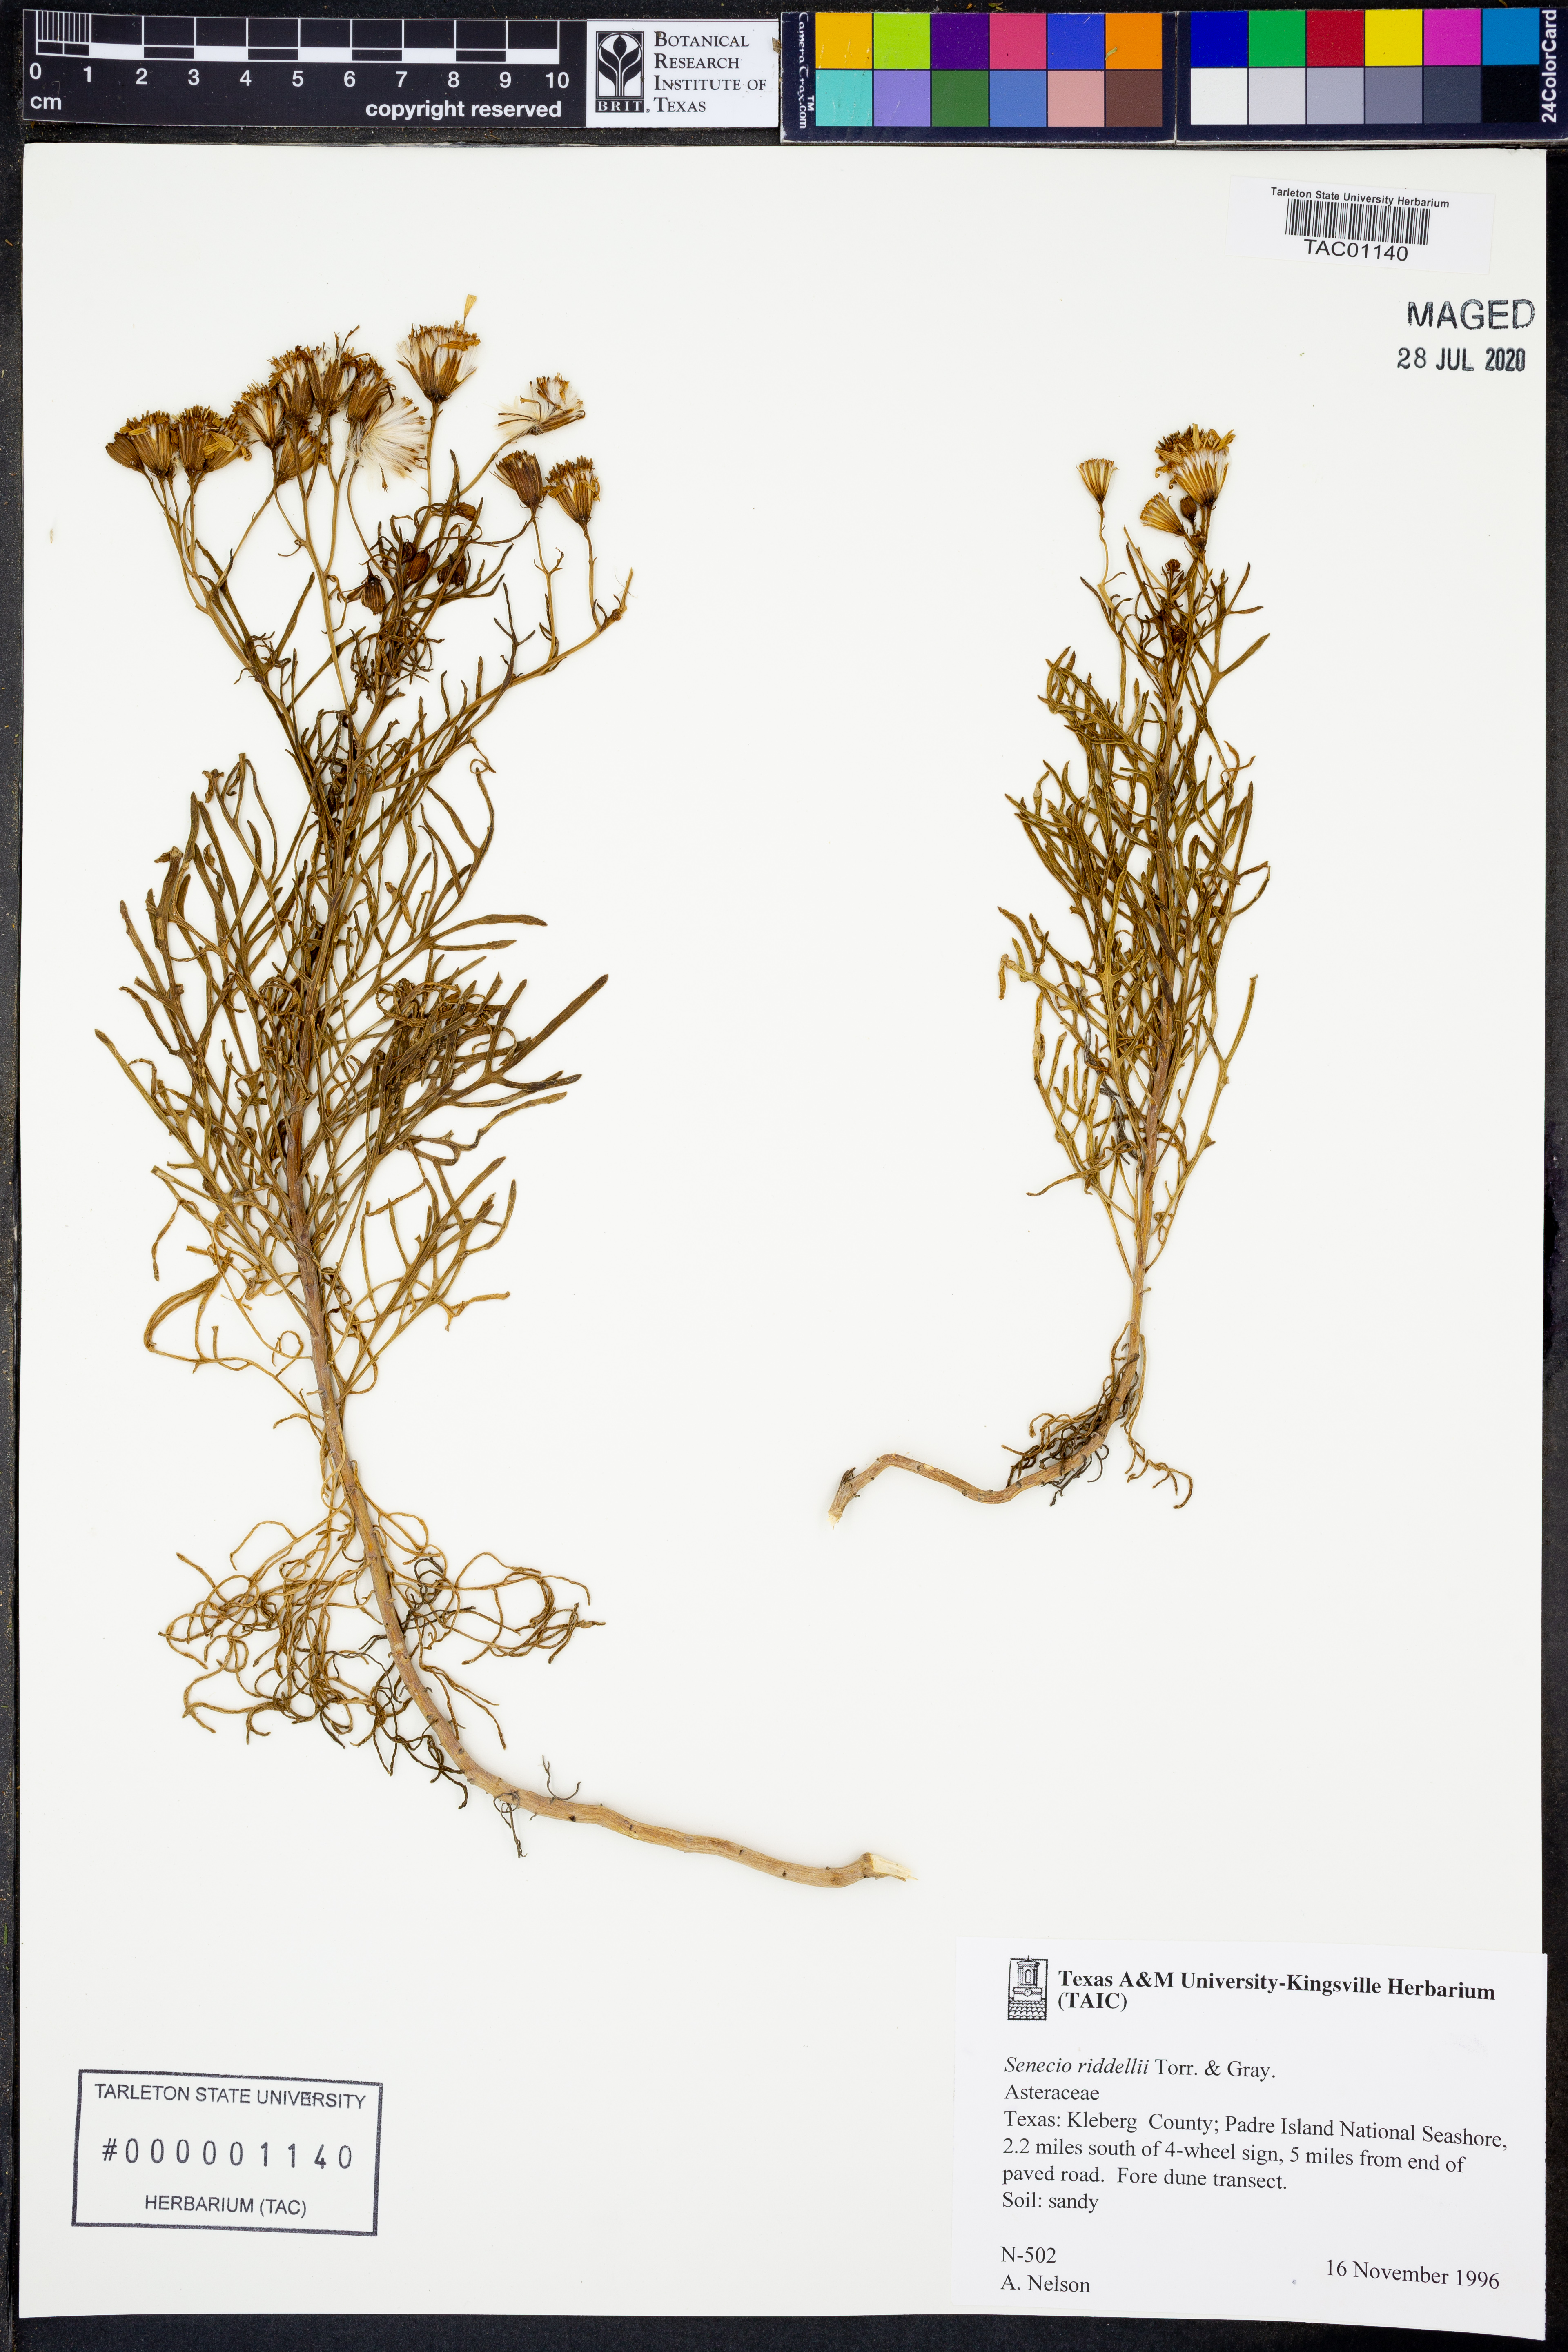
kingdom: Plantae
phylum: Tracheophyta
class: Magnoliopsida
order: Asterales
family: Asteraceae
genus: Senecio
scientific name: Senecio riddellii
